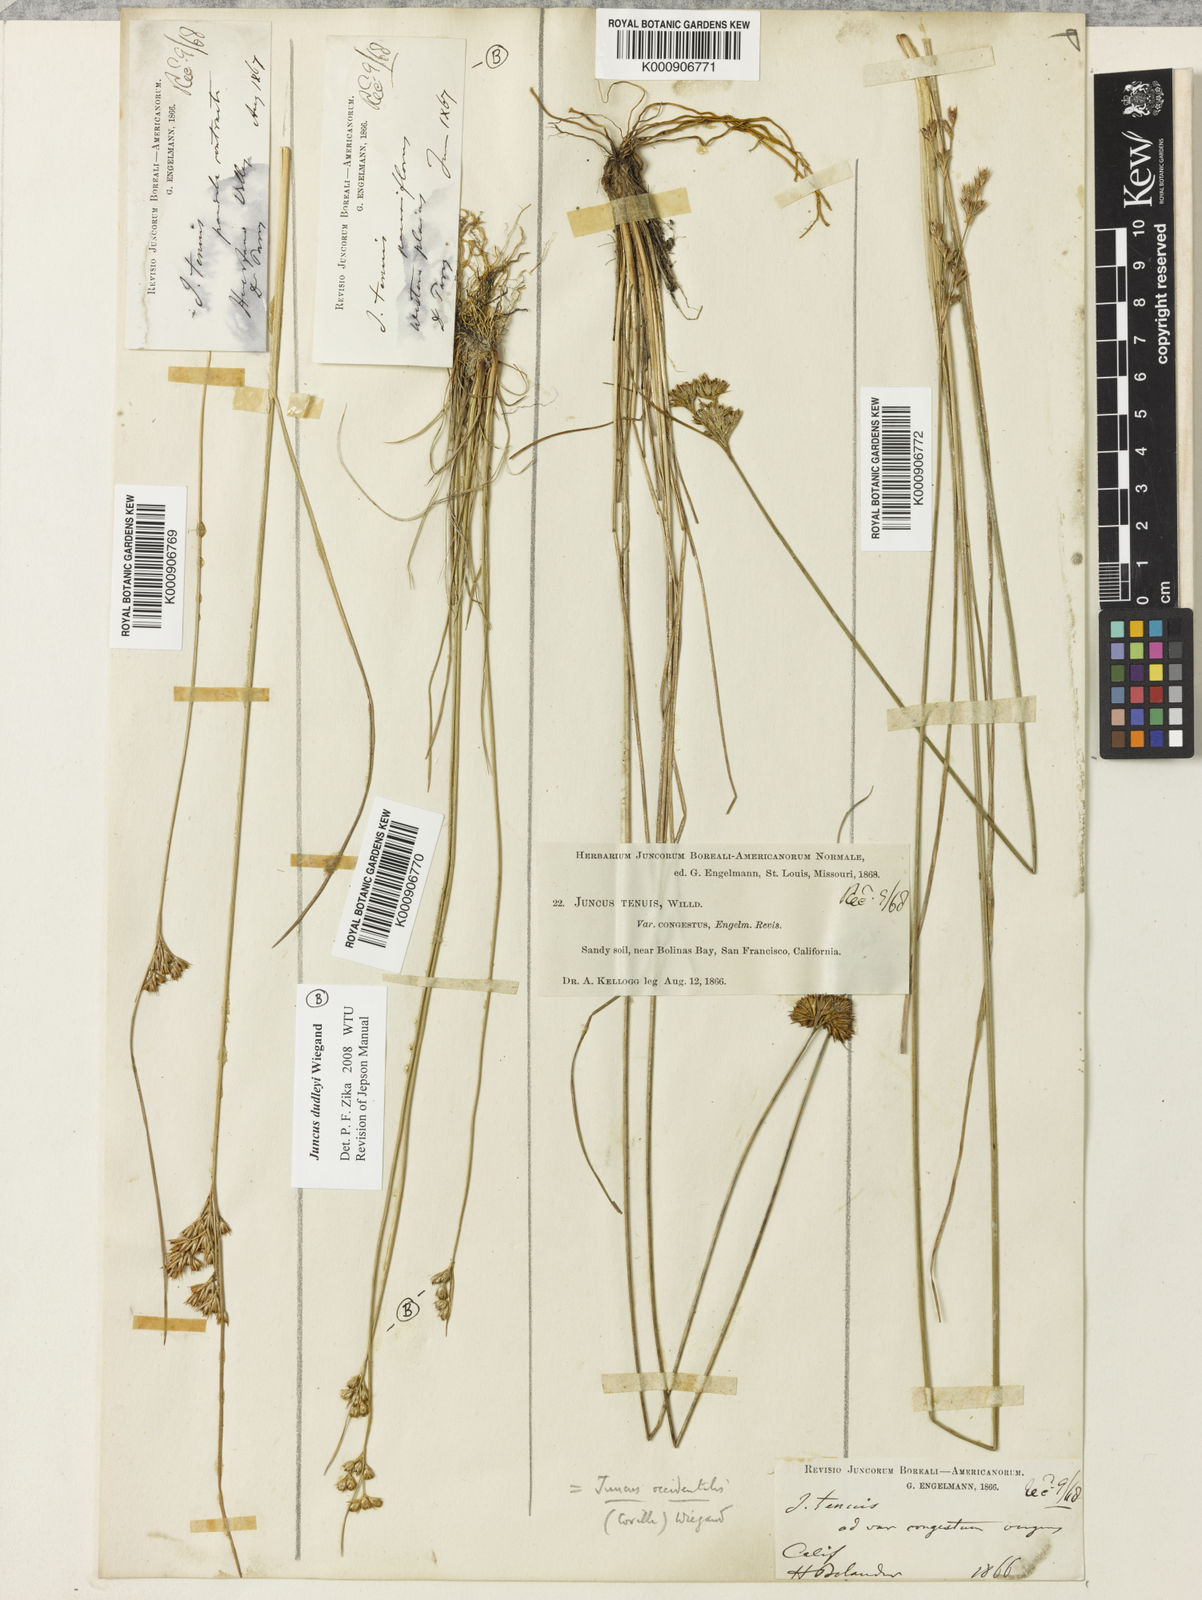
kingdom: Plantae
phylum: Tracheophyta
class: Liliopsida
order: Poales
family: Juncaceae
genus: Juncus
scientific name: Juncus occidentalis
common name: Western rush
